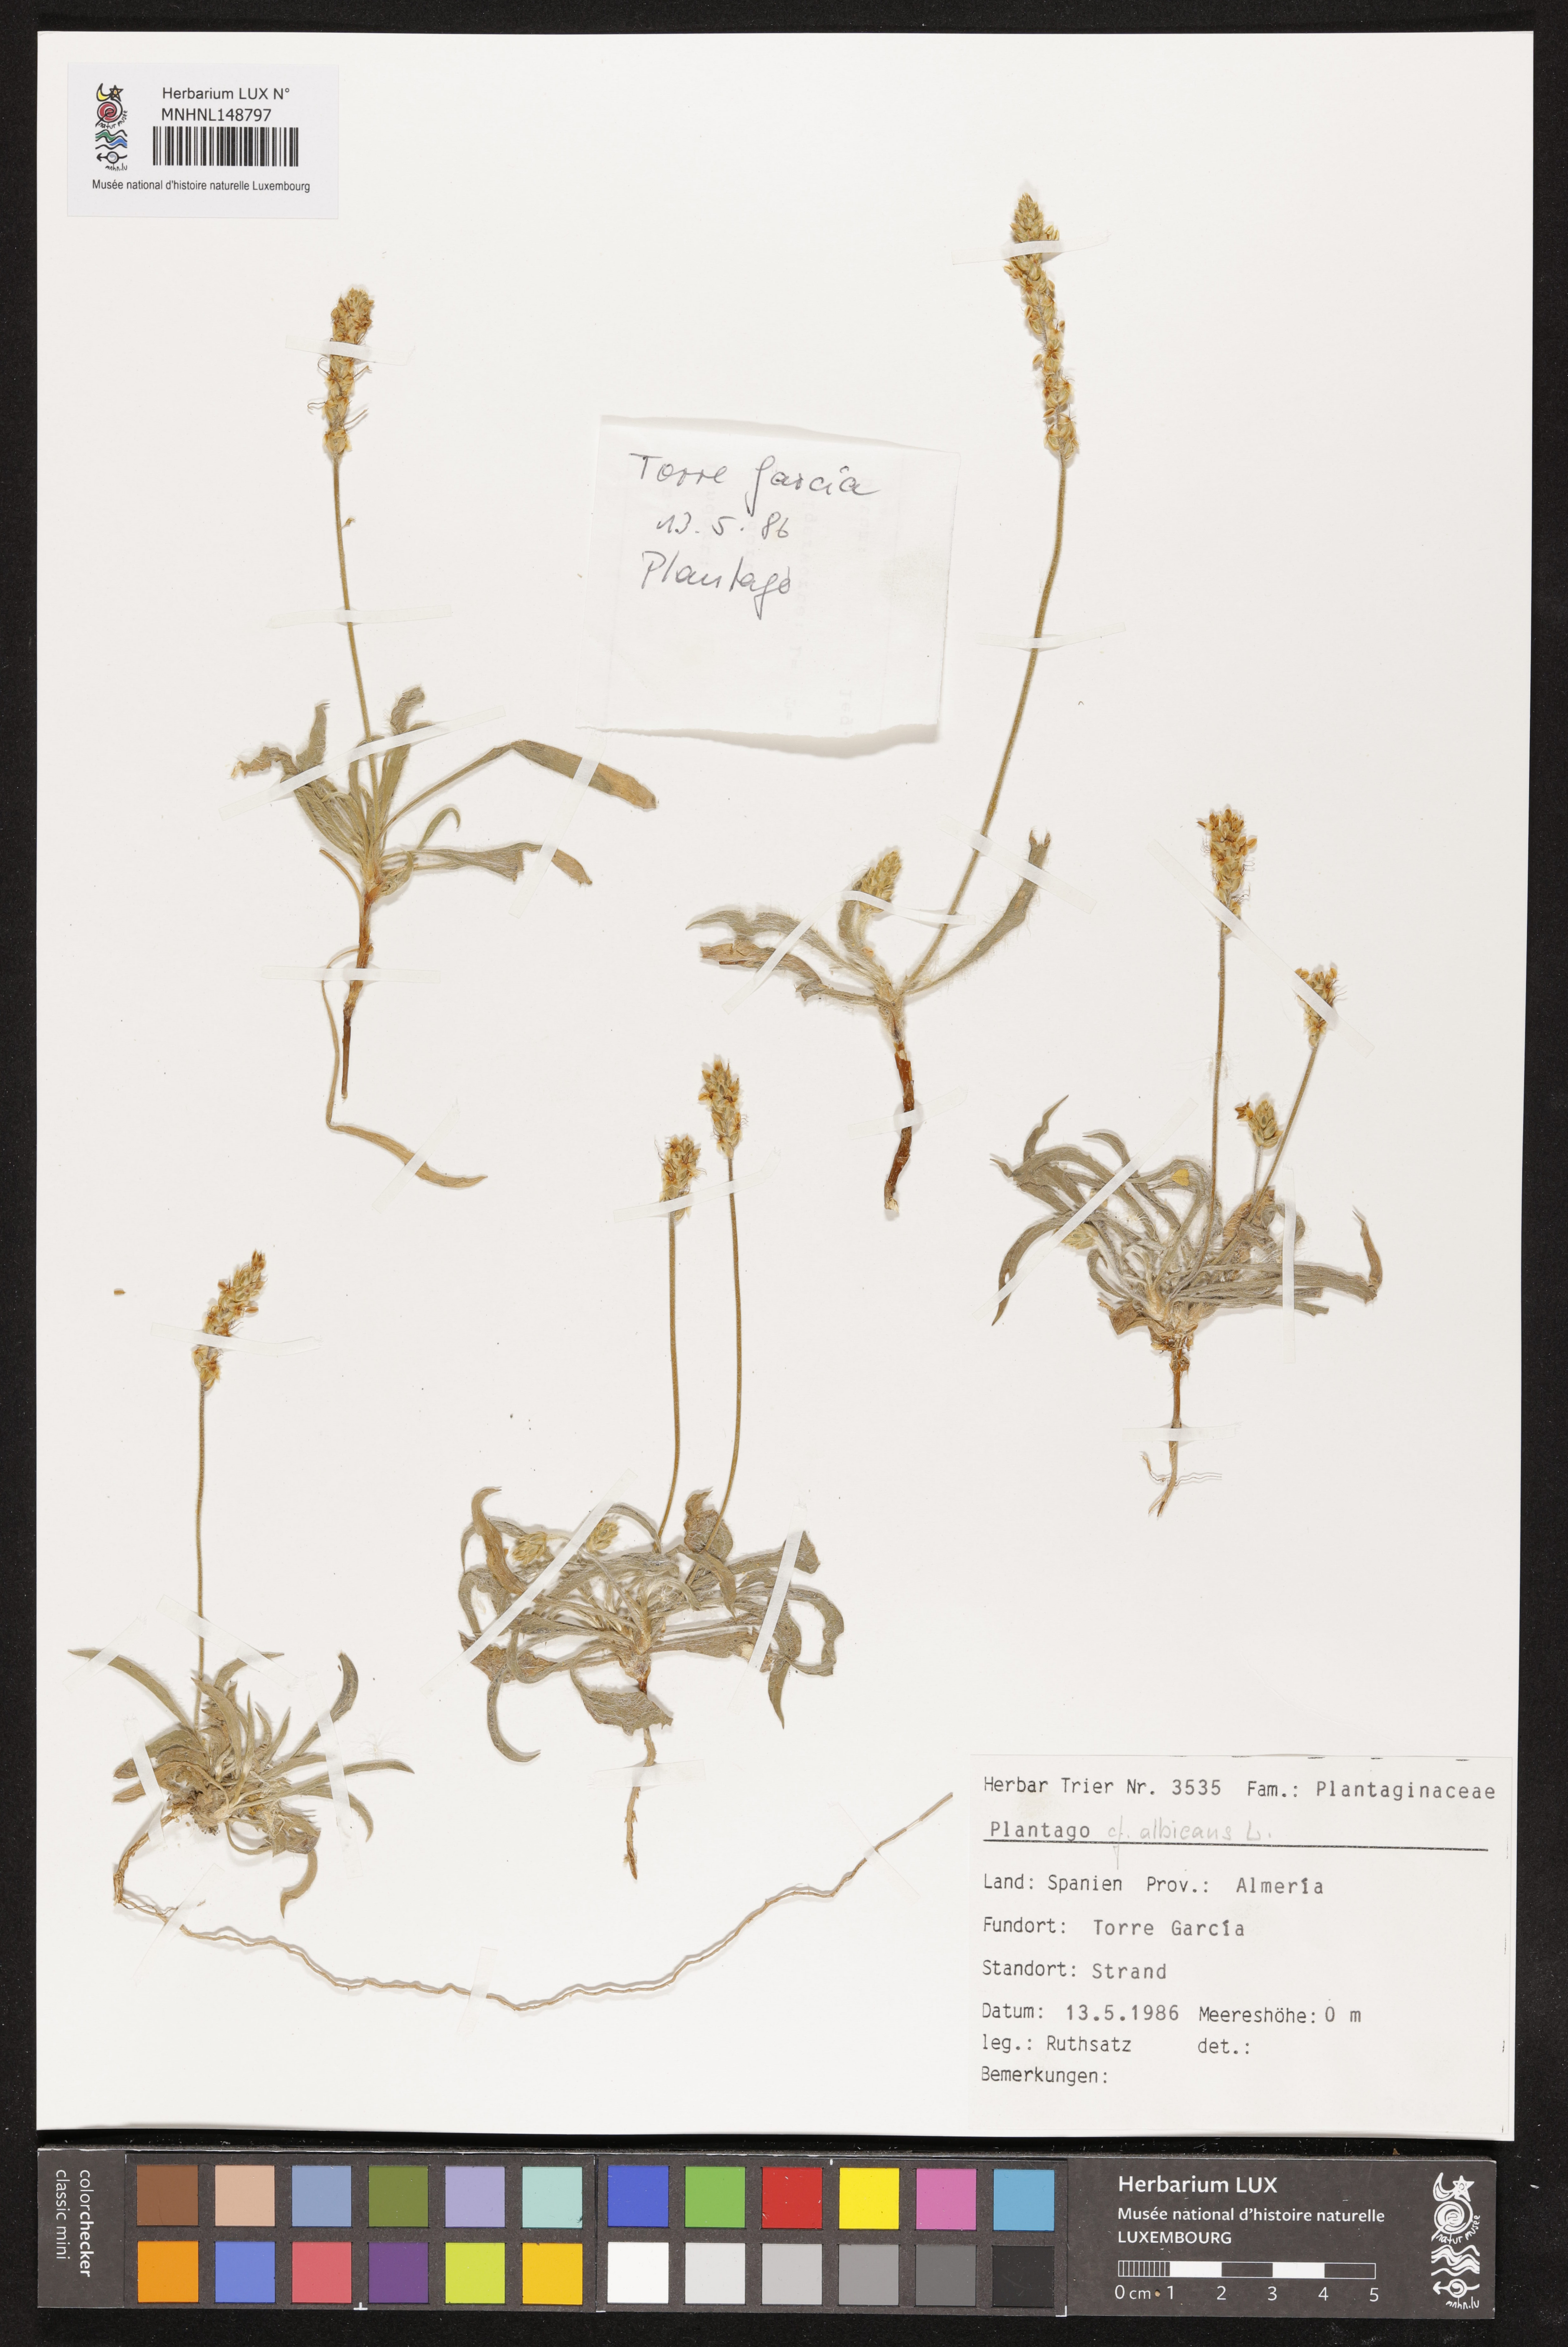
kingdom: Plantae
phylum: Tracheophyta
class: Magnoliopsida
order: Lamiales
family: Plantaginaceae
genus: Plantago
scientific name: Plantago albicans
